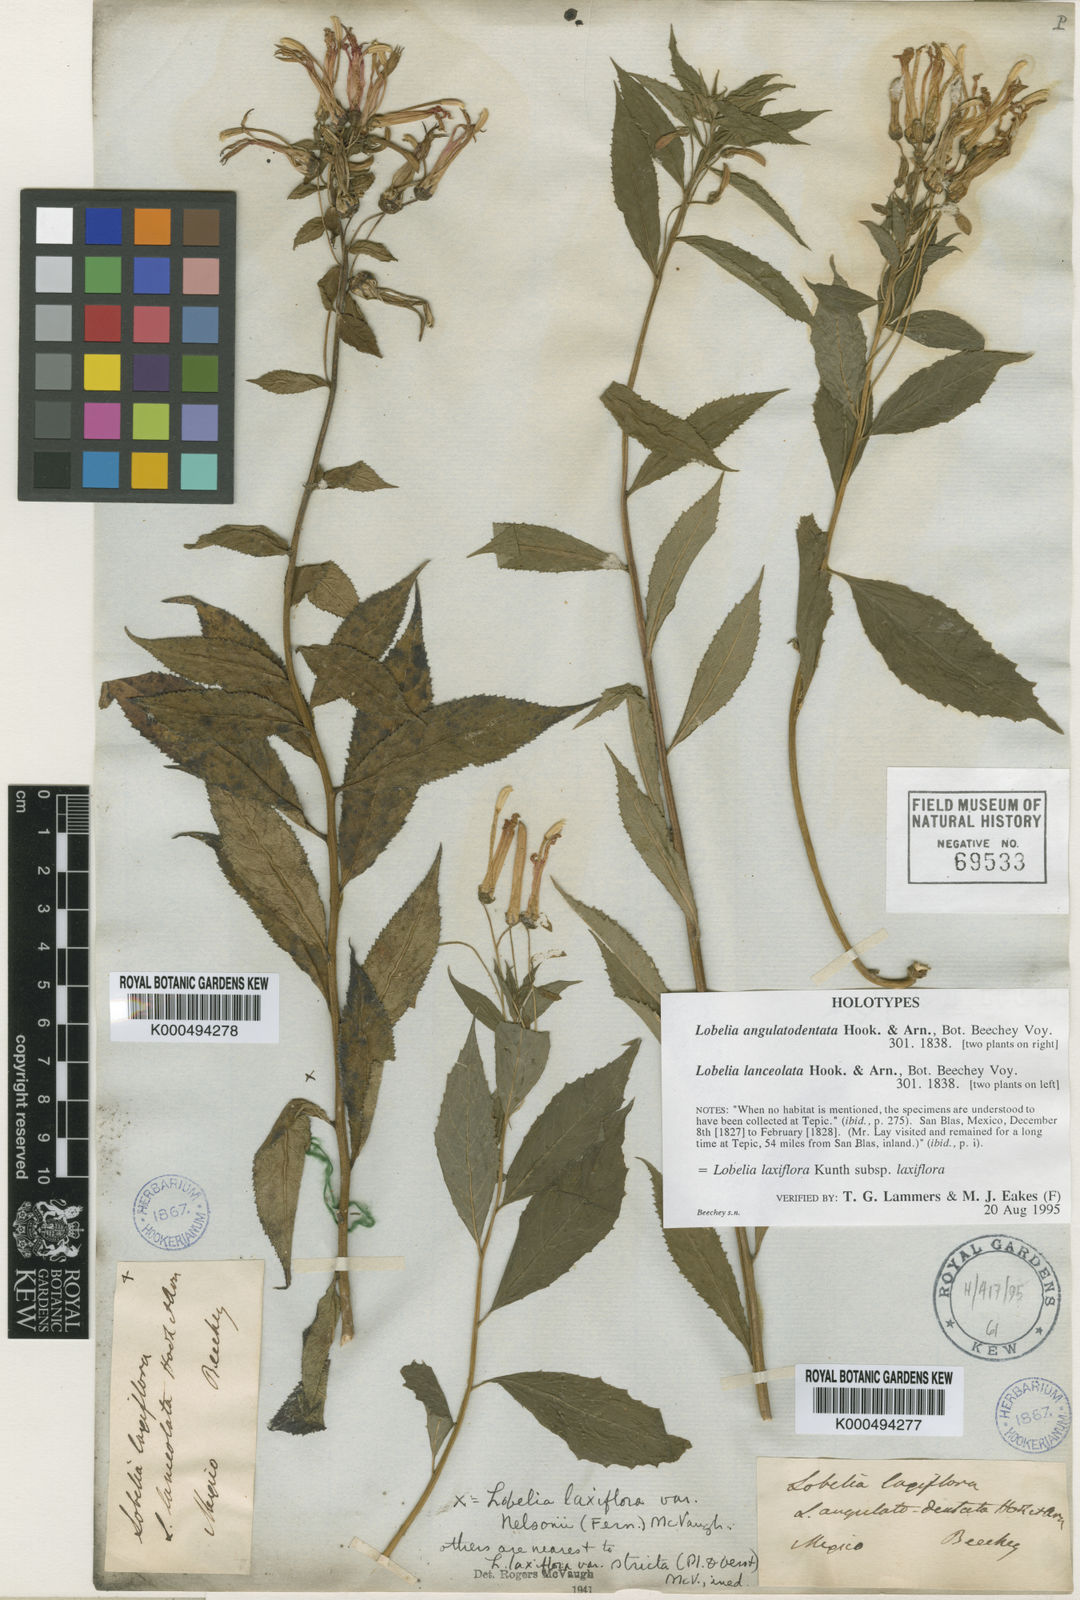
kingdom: Plantae
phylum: Tracheophyta
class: Magnoliopsida
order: Asterales
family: Campanulaceae
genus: Lobelia
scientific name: Lobelia laxiflora
